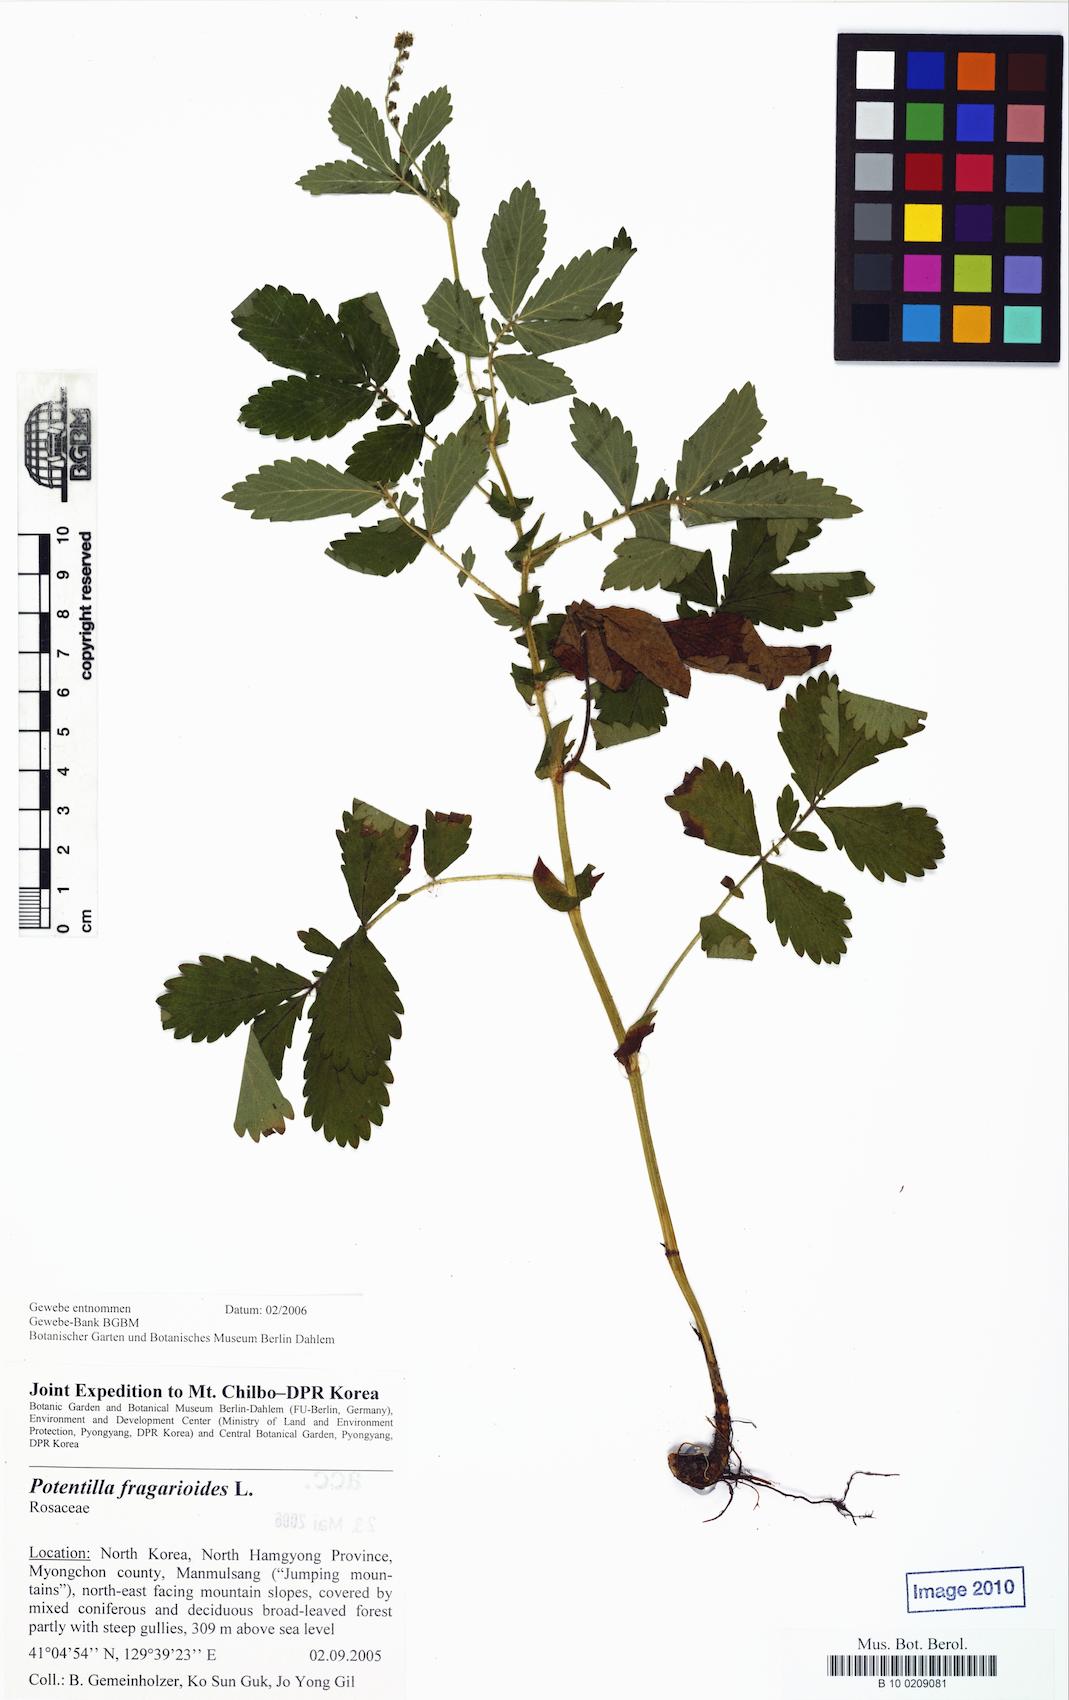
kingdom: Plantae
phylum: Tracheophyta
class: Magnoliopsida
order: Rosales
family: Rosaceae
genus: Potentilla
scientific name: Potentilla fragarioides
